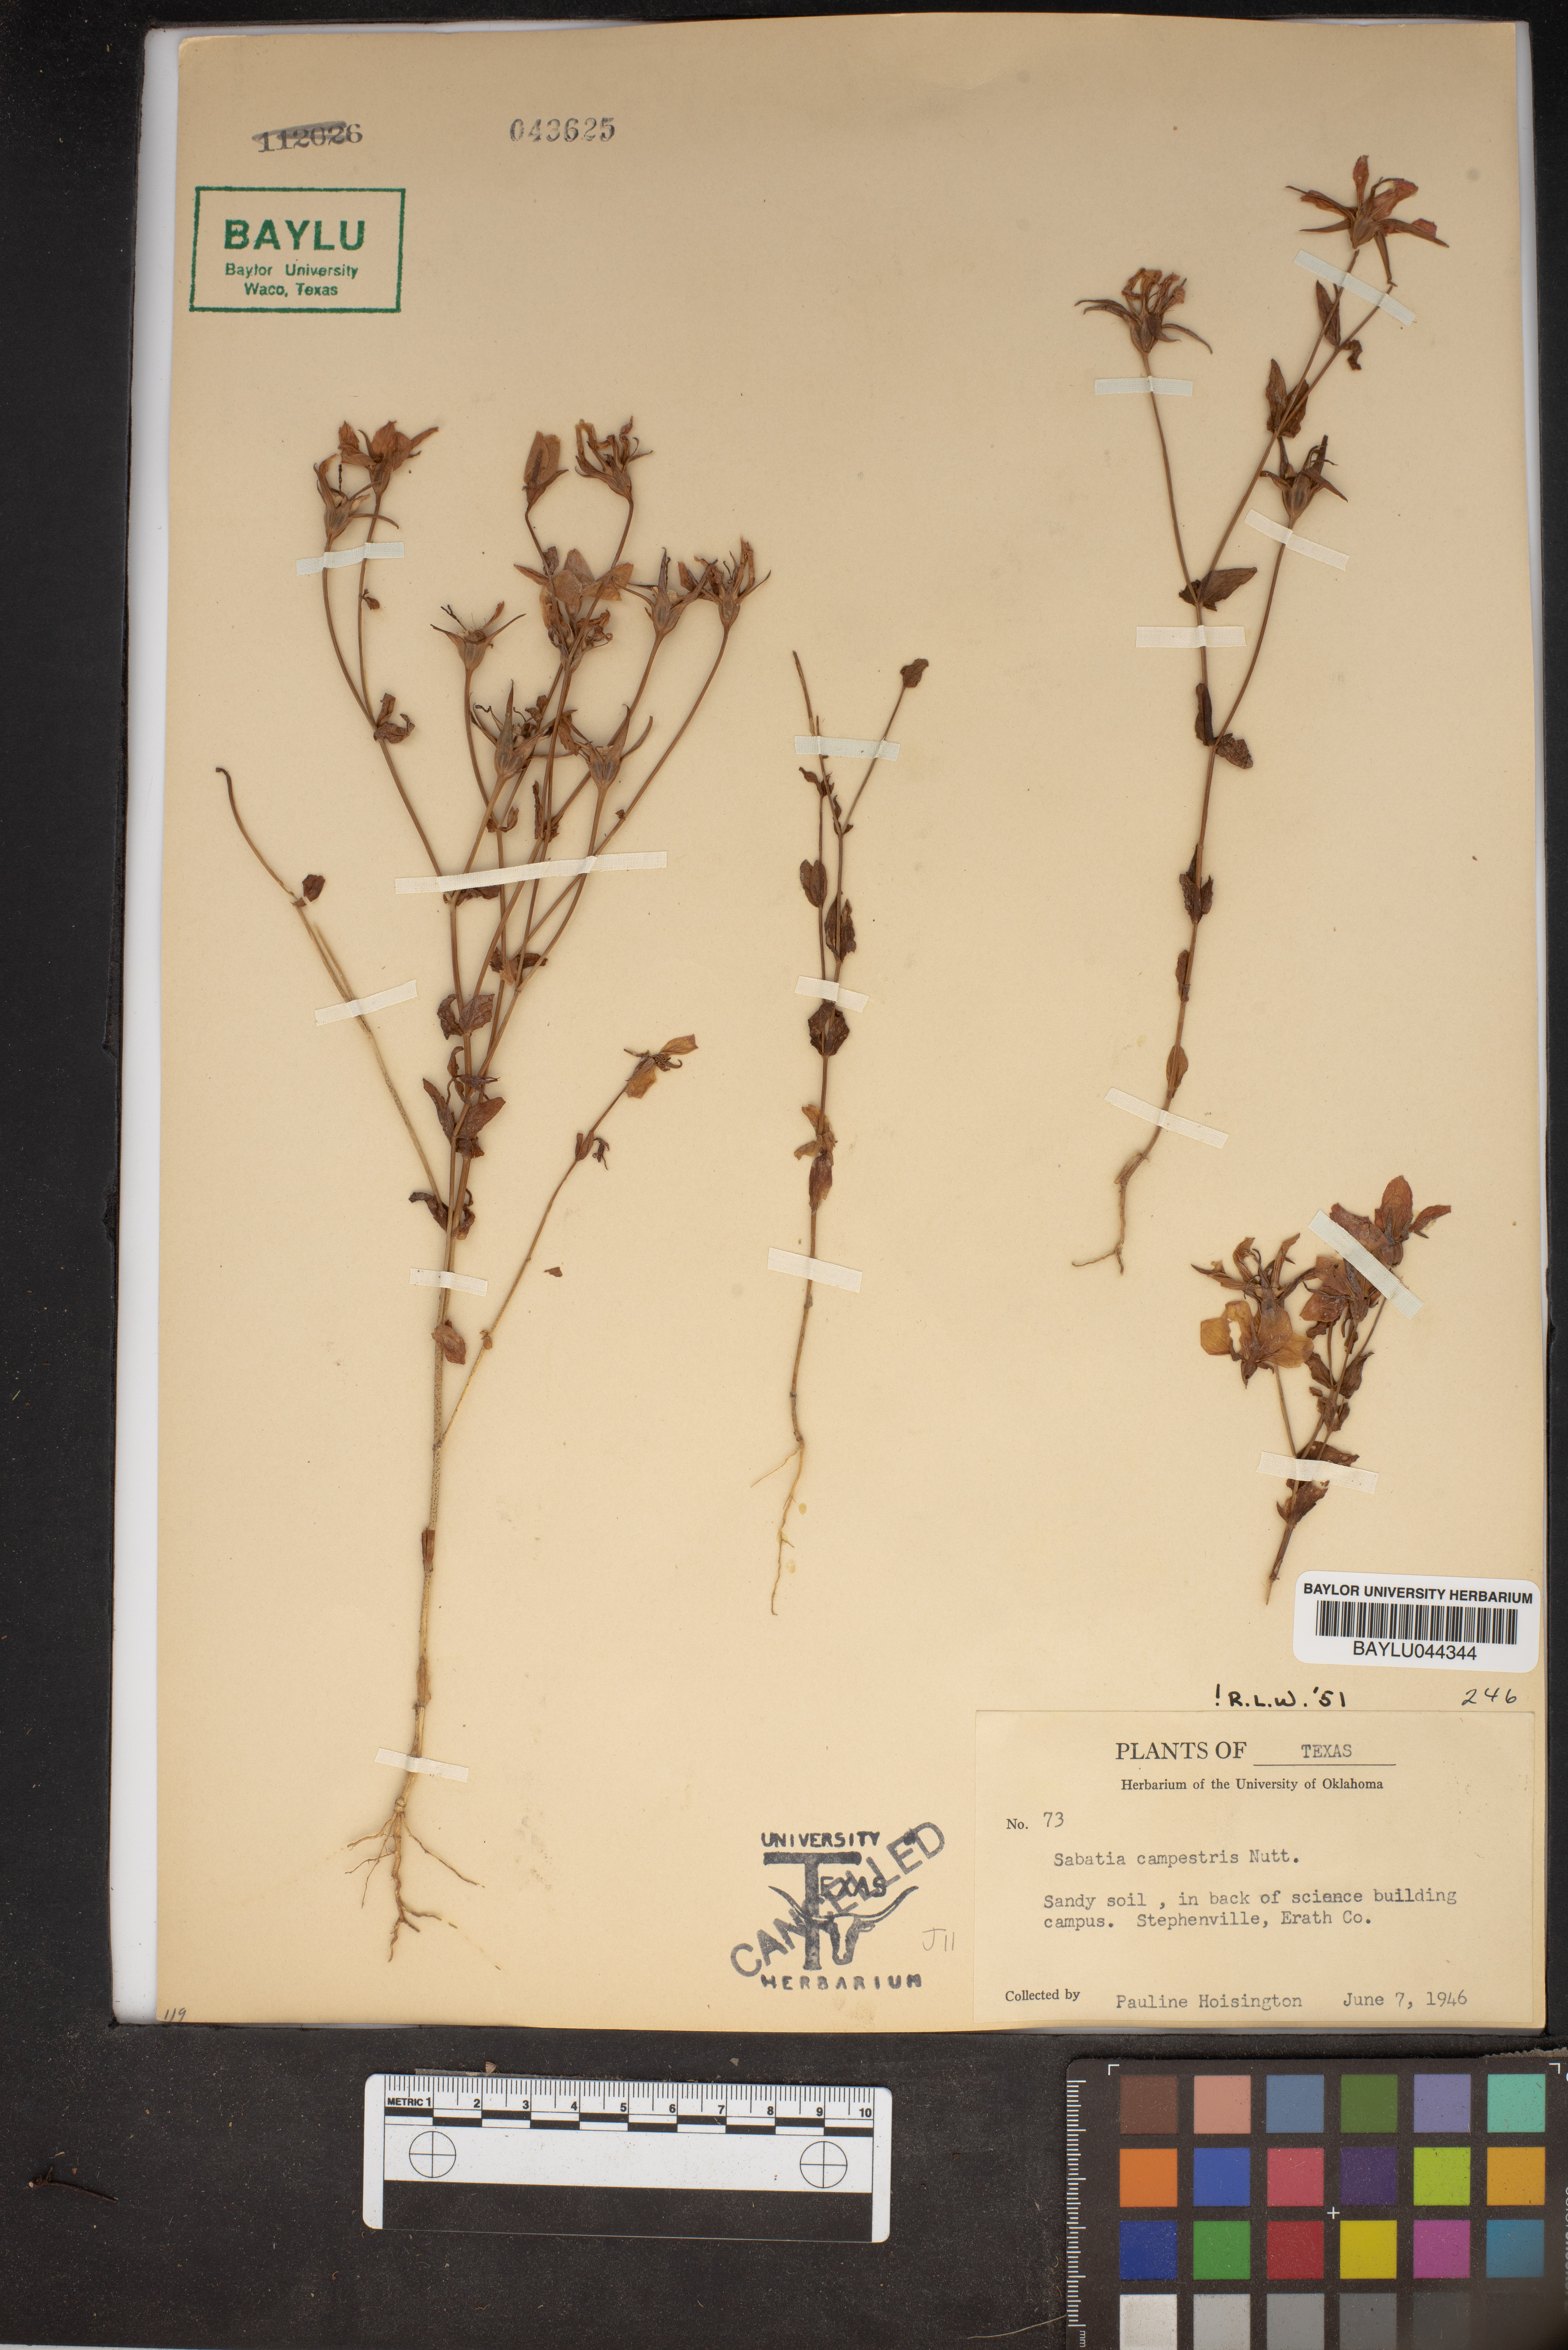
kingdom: Plantae
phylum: Tracheophyta
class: Magnoliopsida
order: Gentianales
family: Gentianaceae
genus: Sabatia
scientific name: Sabatia campestris
